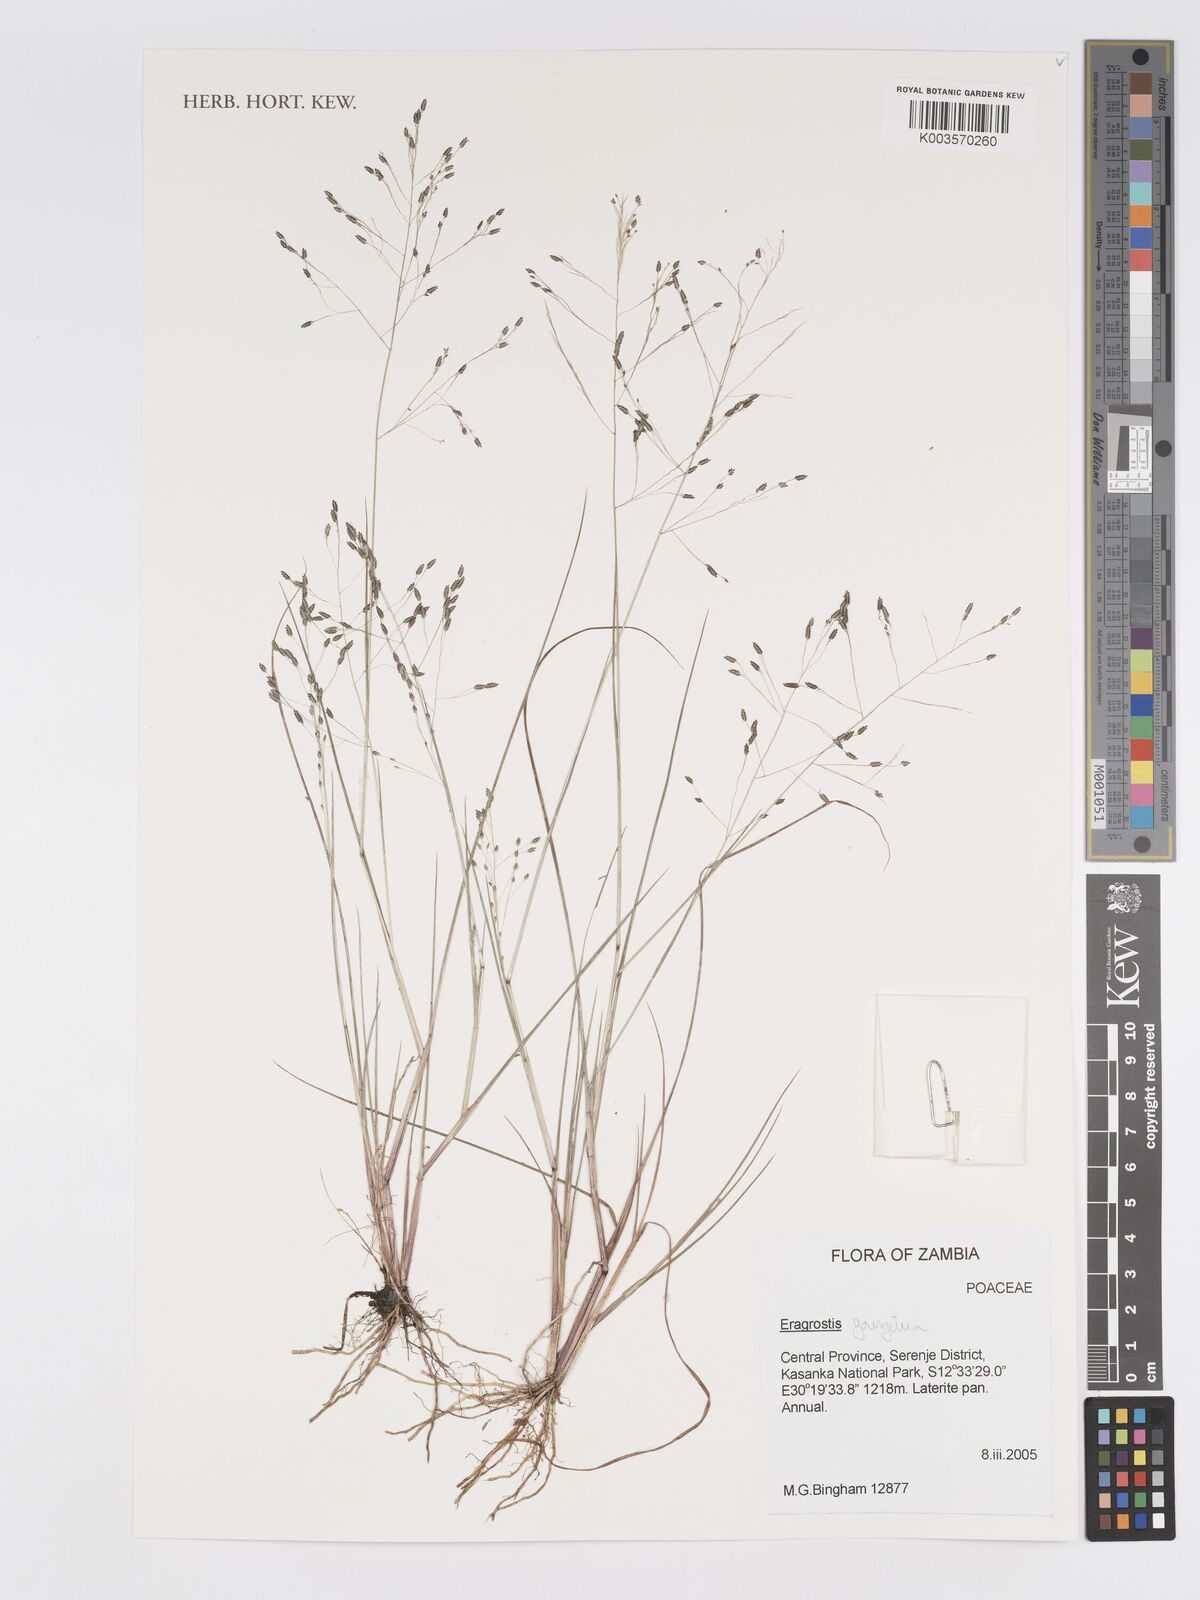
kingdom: Plantae
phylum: Tracheophyta
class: Liliopsida
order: Poales
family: Poaceae
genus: Eragrostis
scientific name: Eragrostis gangetica
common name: Slimflower lovegrass
